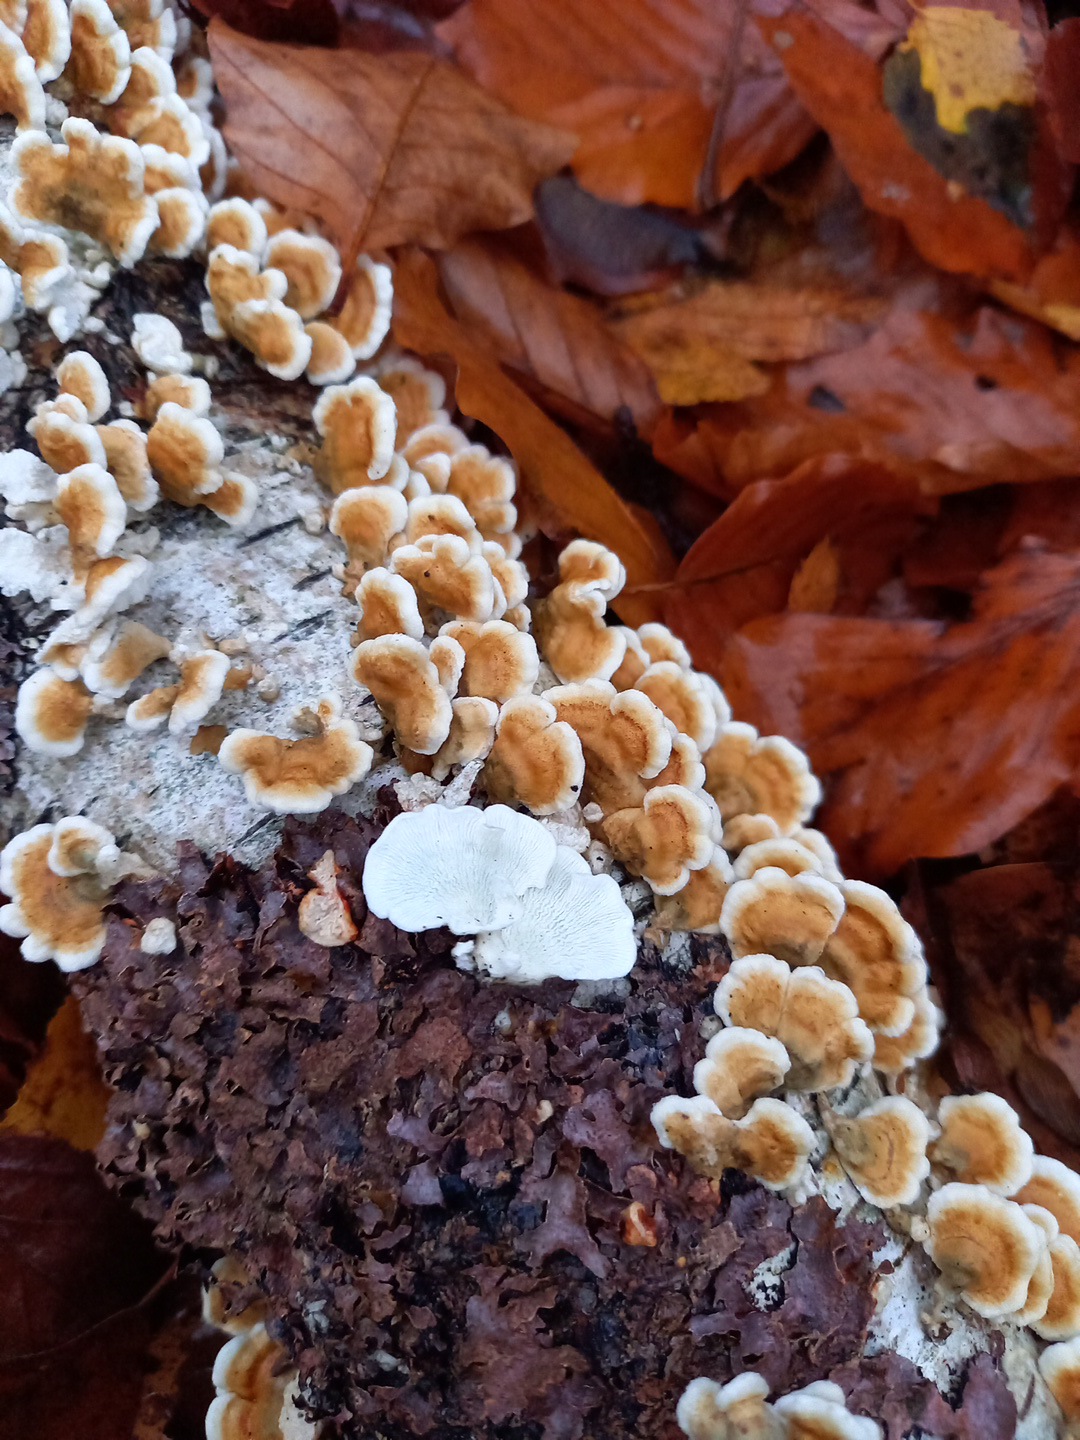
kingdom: Fungi
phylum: Basidiomycota
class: Agaricomycetes
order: Amylocorticiales
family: Amylocorticiaceae
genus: Plicaturopsis
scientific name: Plicaturopsis crispa
